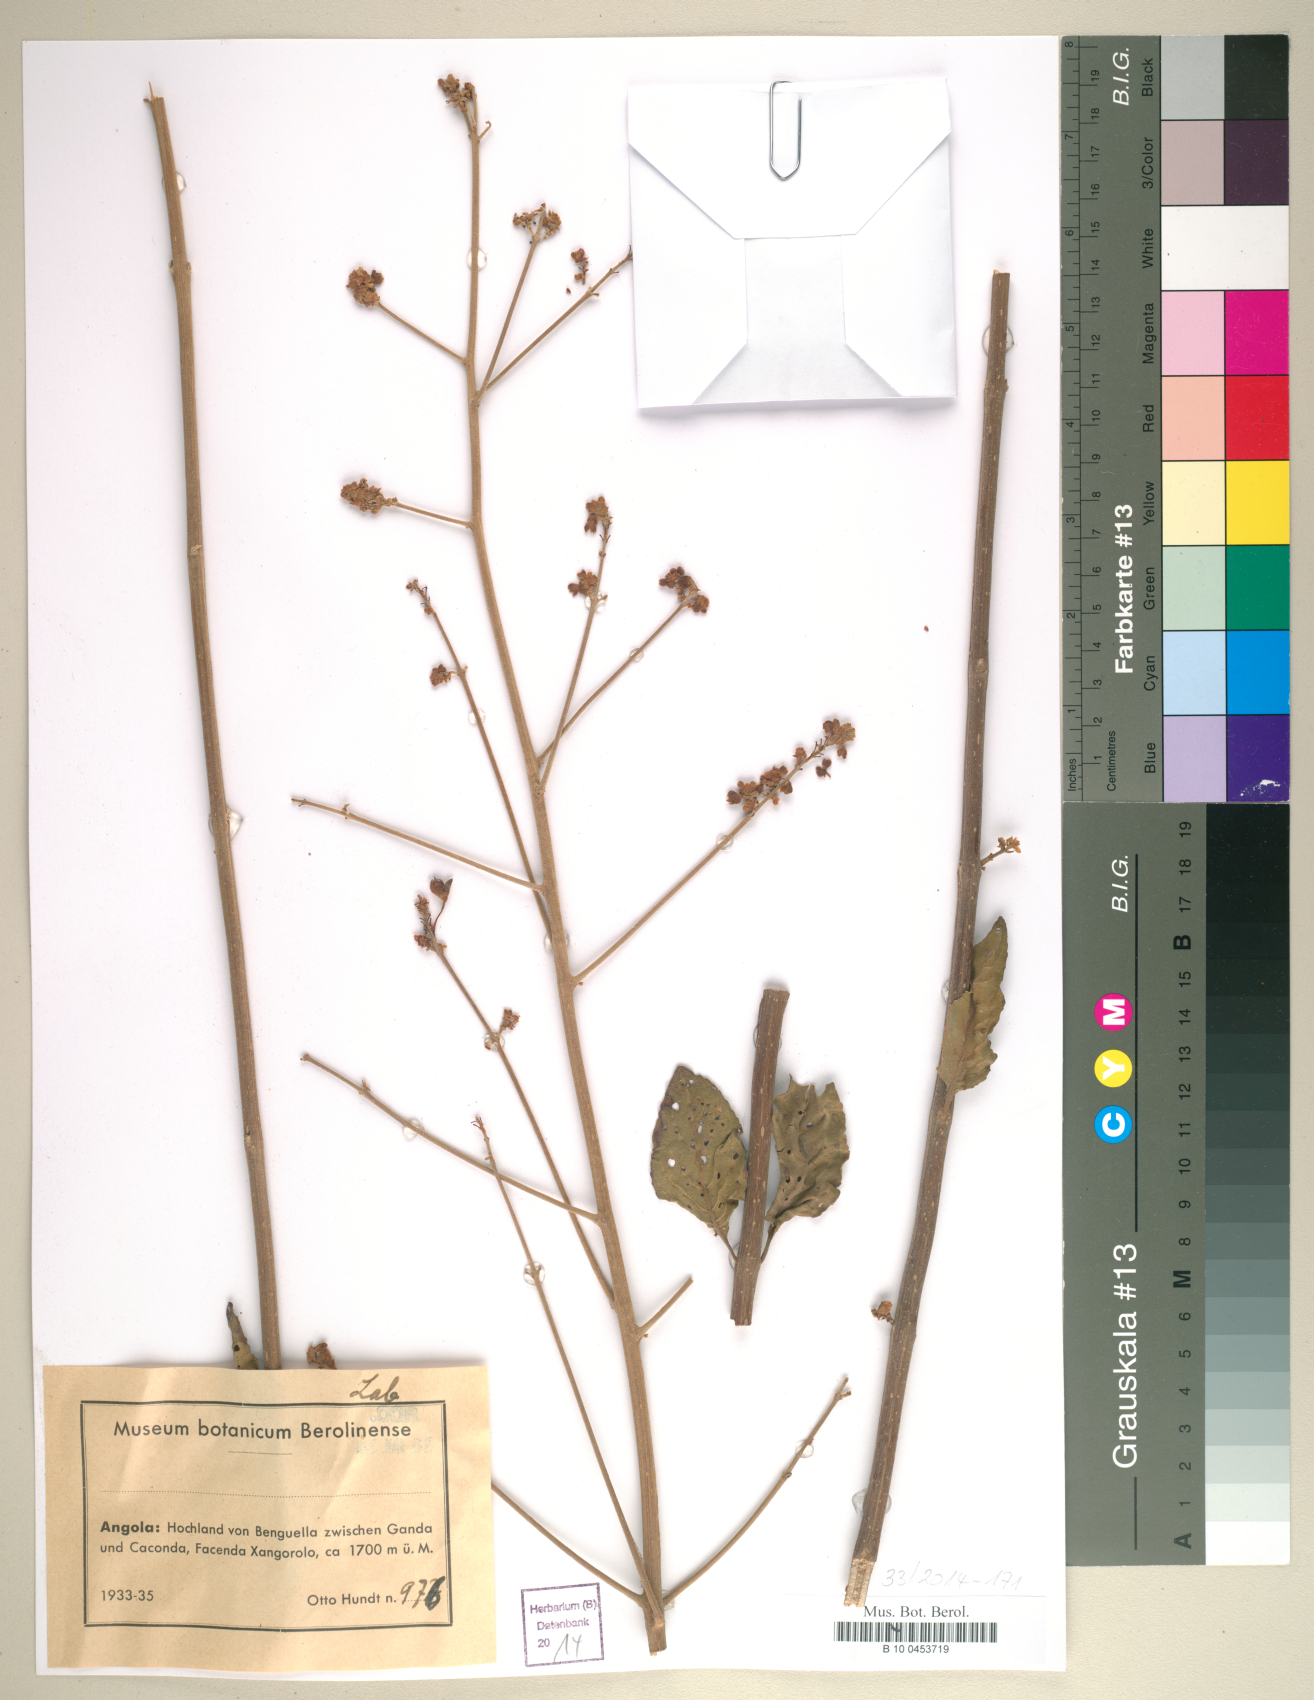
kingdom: Plantae
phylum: Tracheophyta
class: Magnoliopsida
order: Lamiales
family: Lamiaceae
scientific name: Lamiaceae
